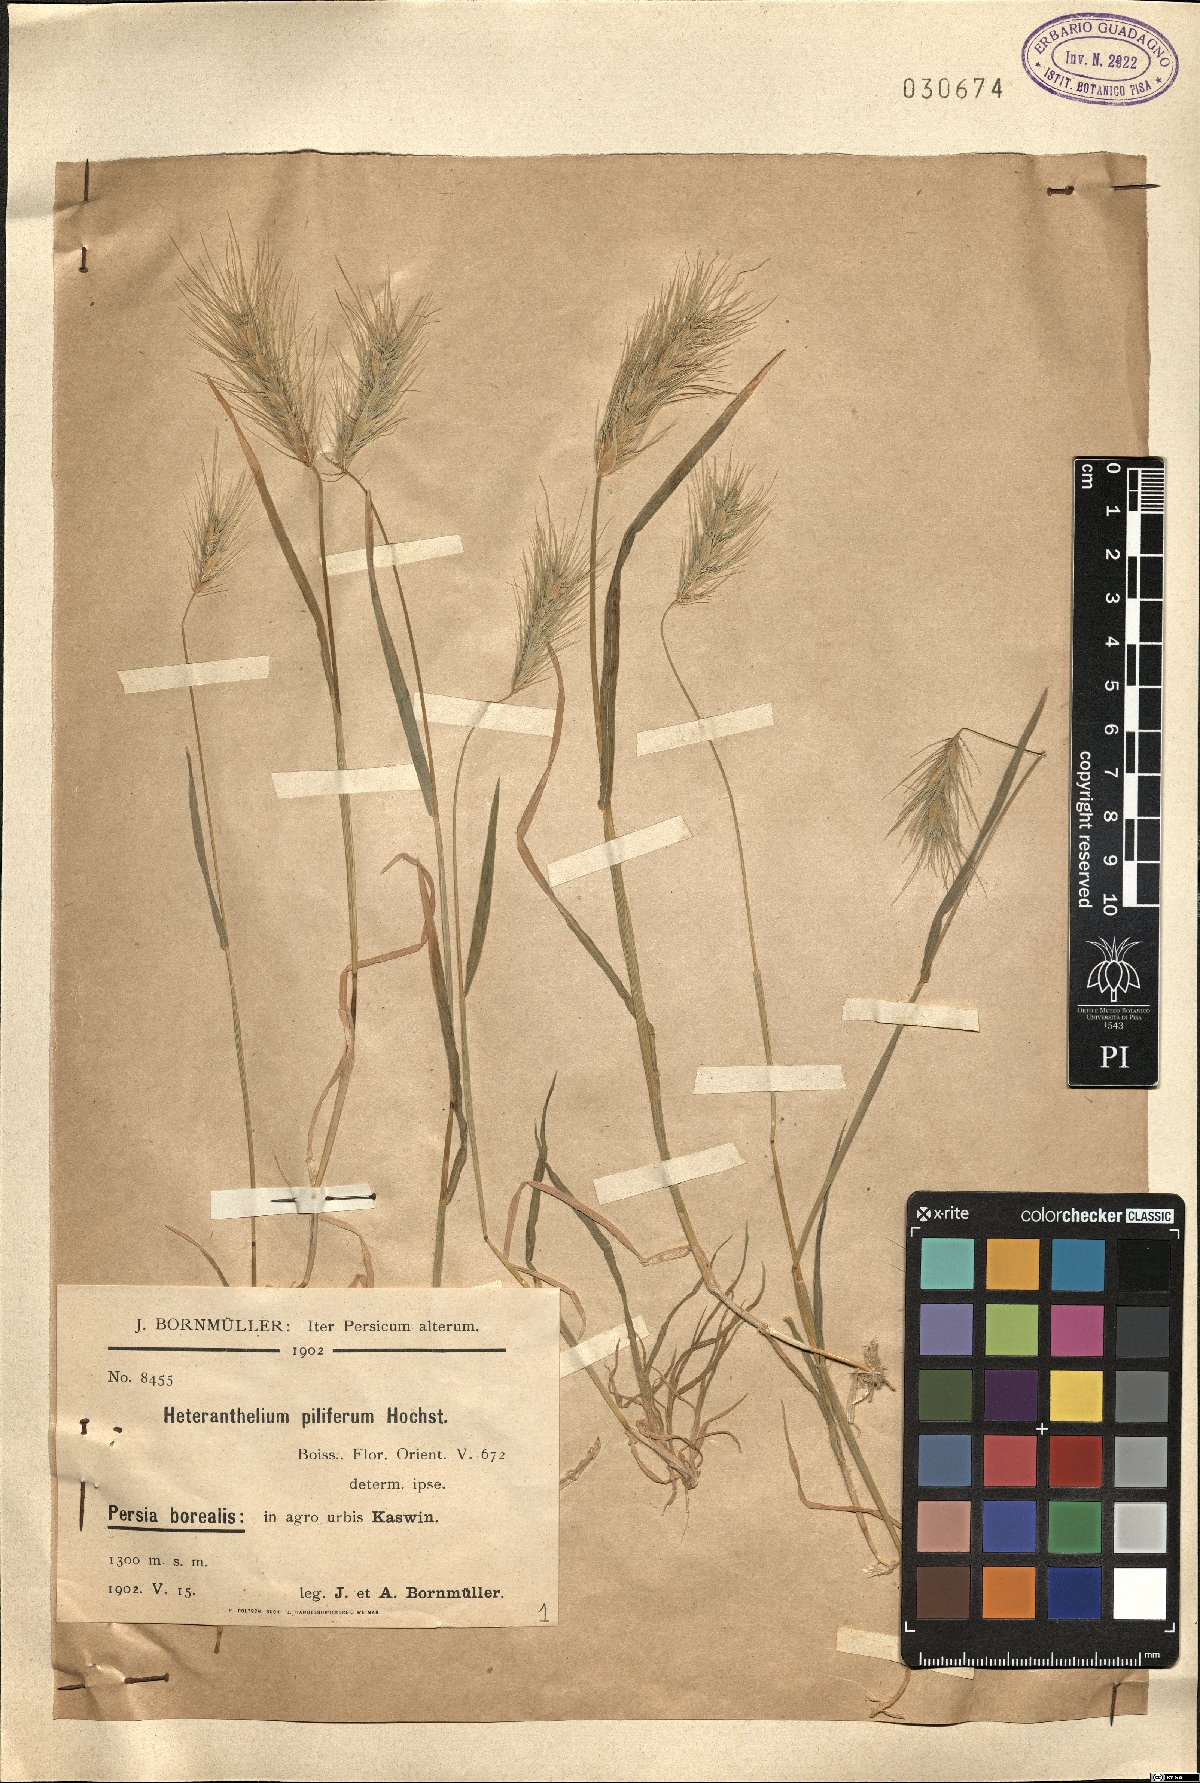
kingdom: Plantae
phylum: Tracheophyta
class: Liliopsida
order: Poales
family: Poaceae
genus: Heteranthelium
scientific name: Heteranthelium piliferum
